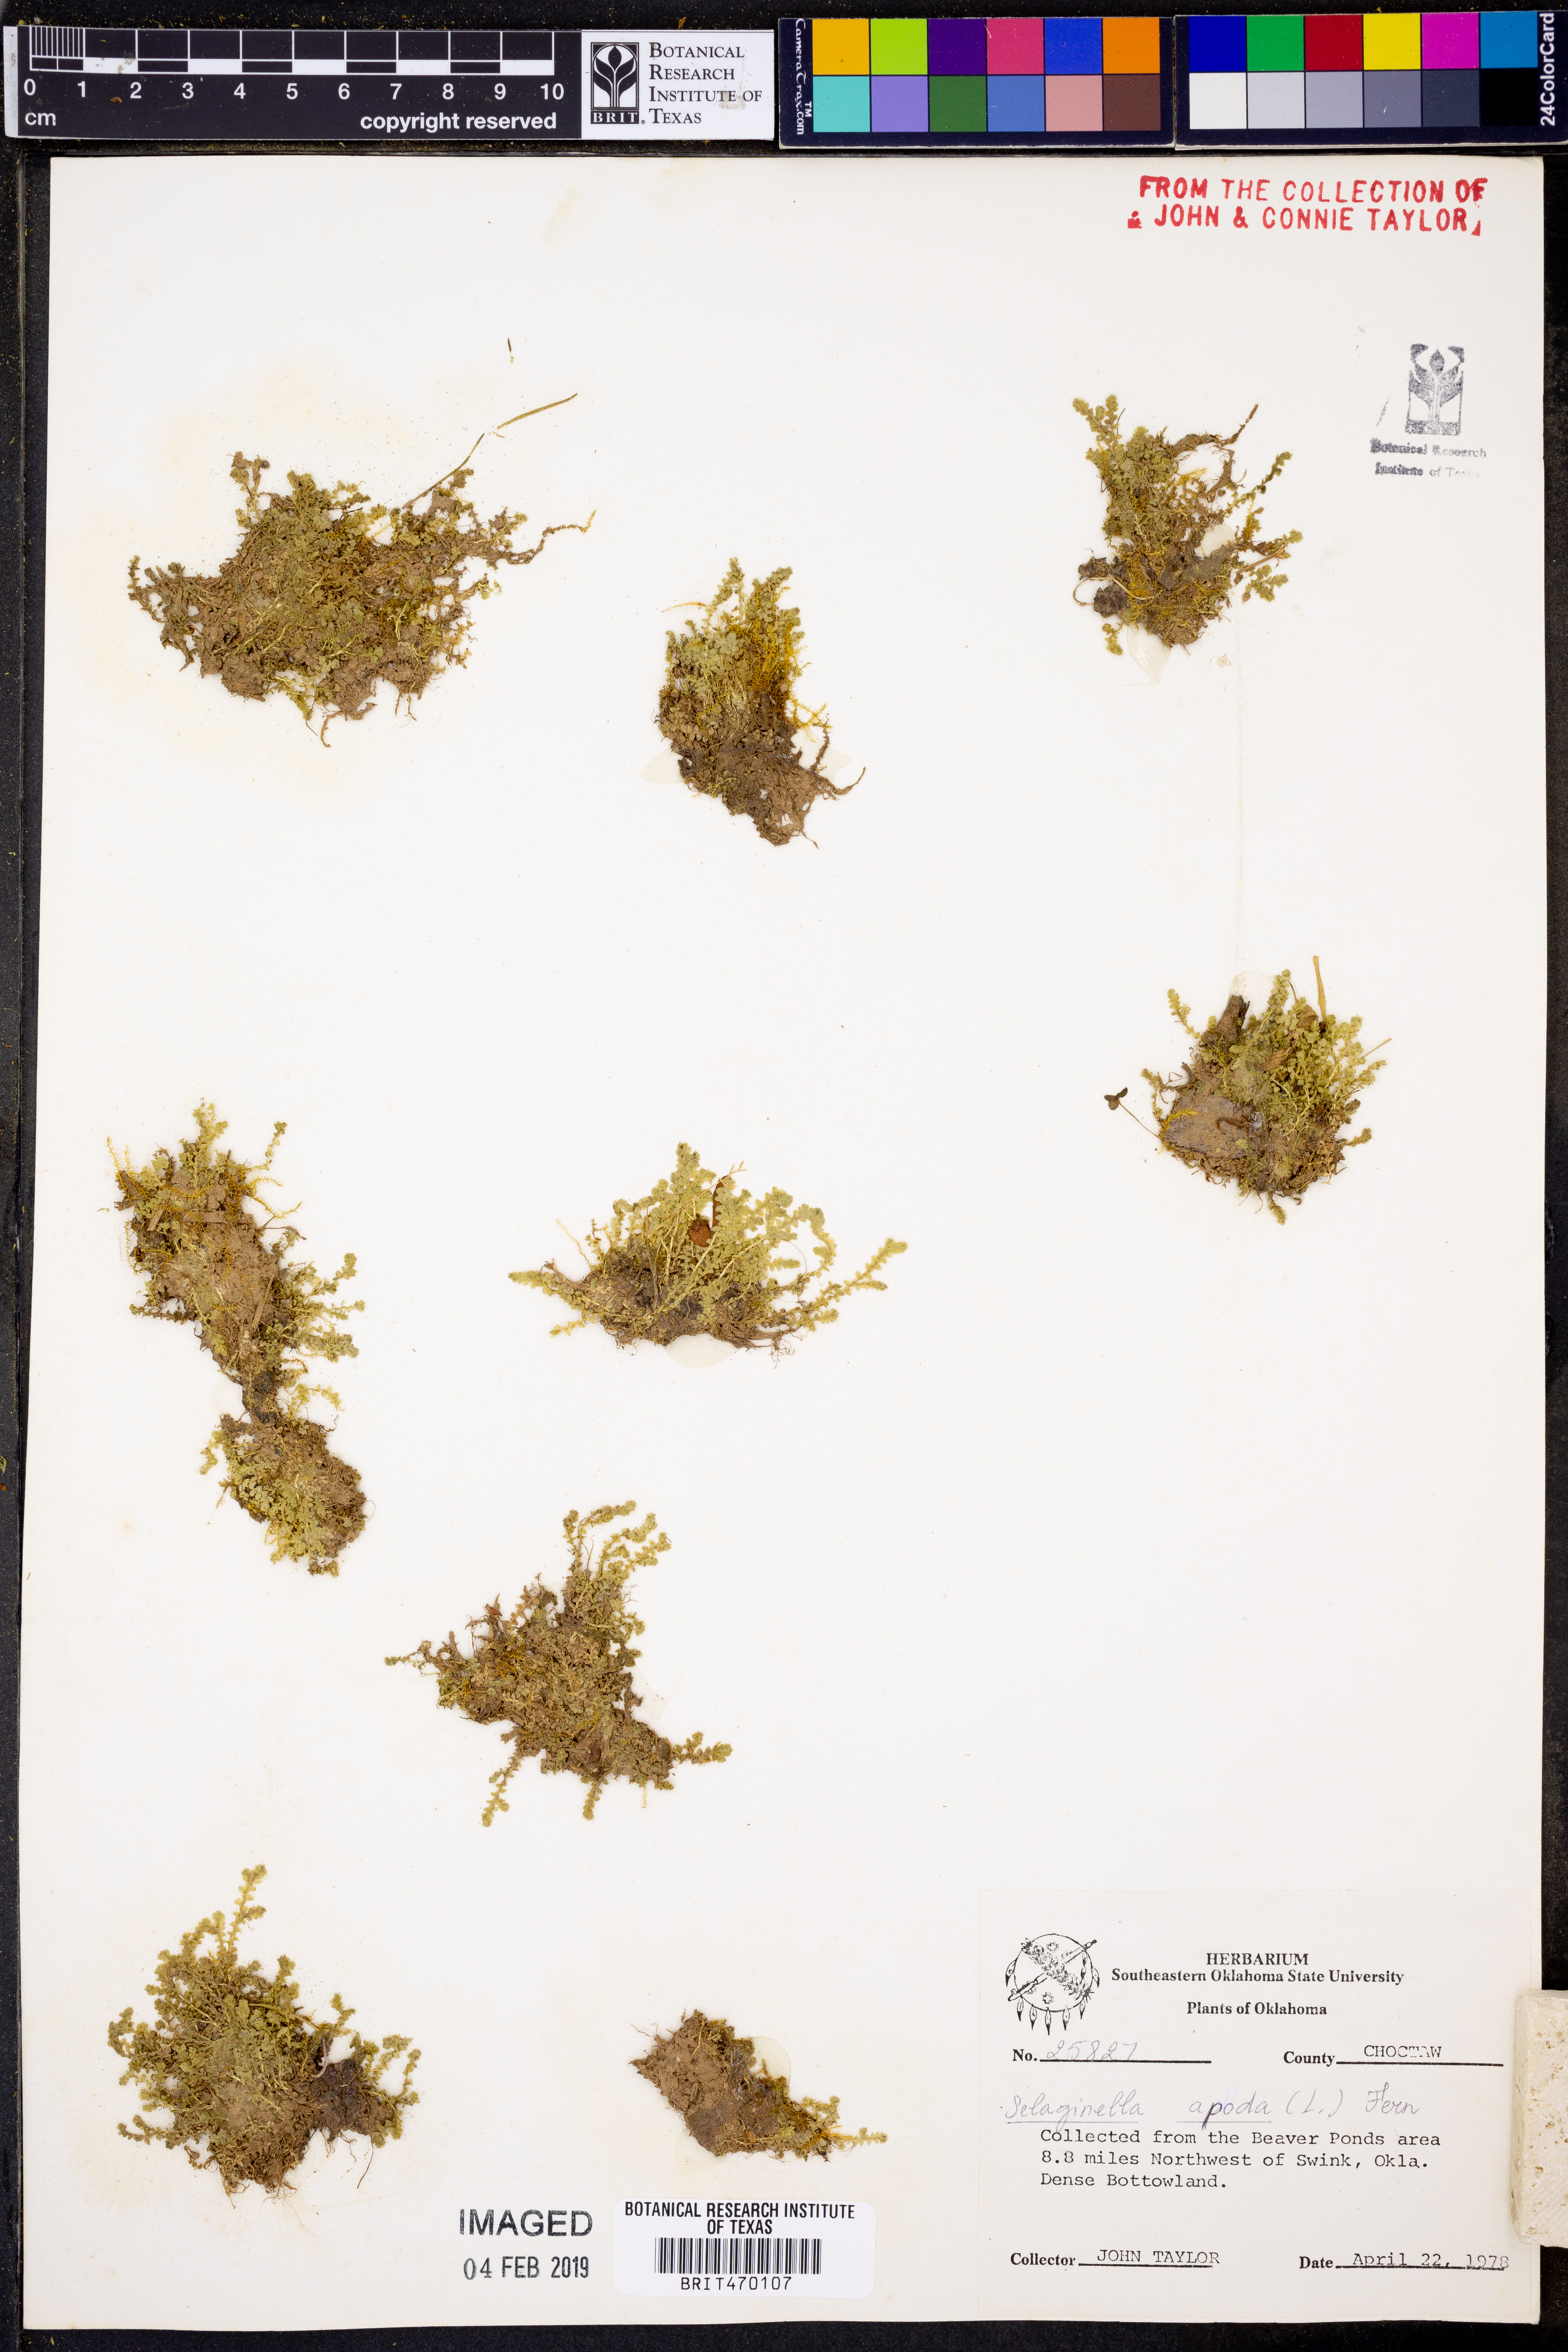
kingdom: Plantae
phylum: Tracheophyta
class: Lycopodiopsida
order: Selaginellales
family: Selaginellaceae
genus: Selaginella
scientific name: Selaginella apoda
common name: Creeping spikemoss
